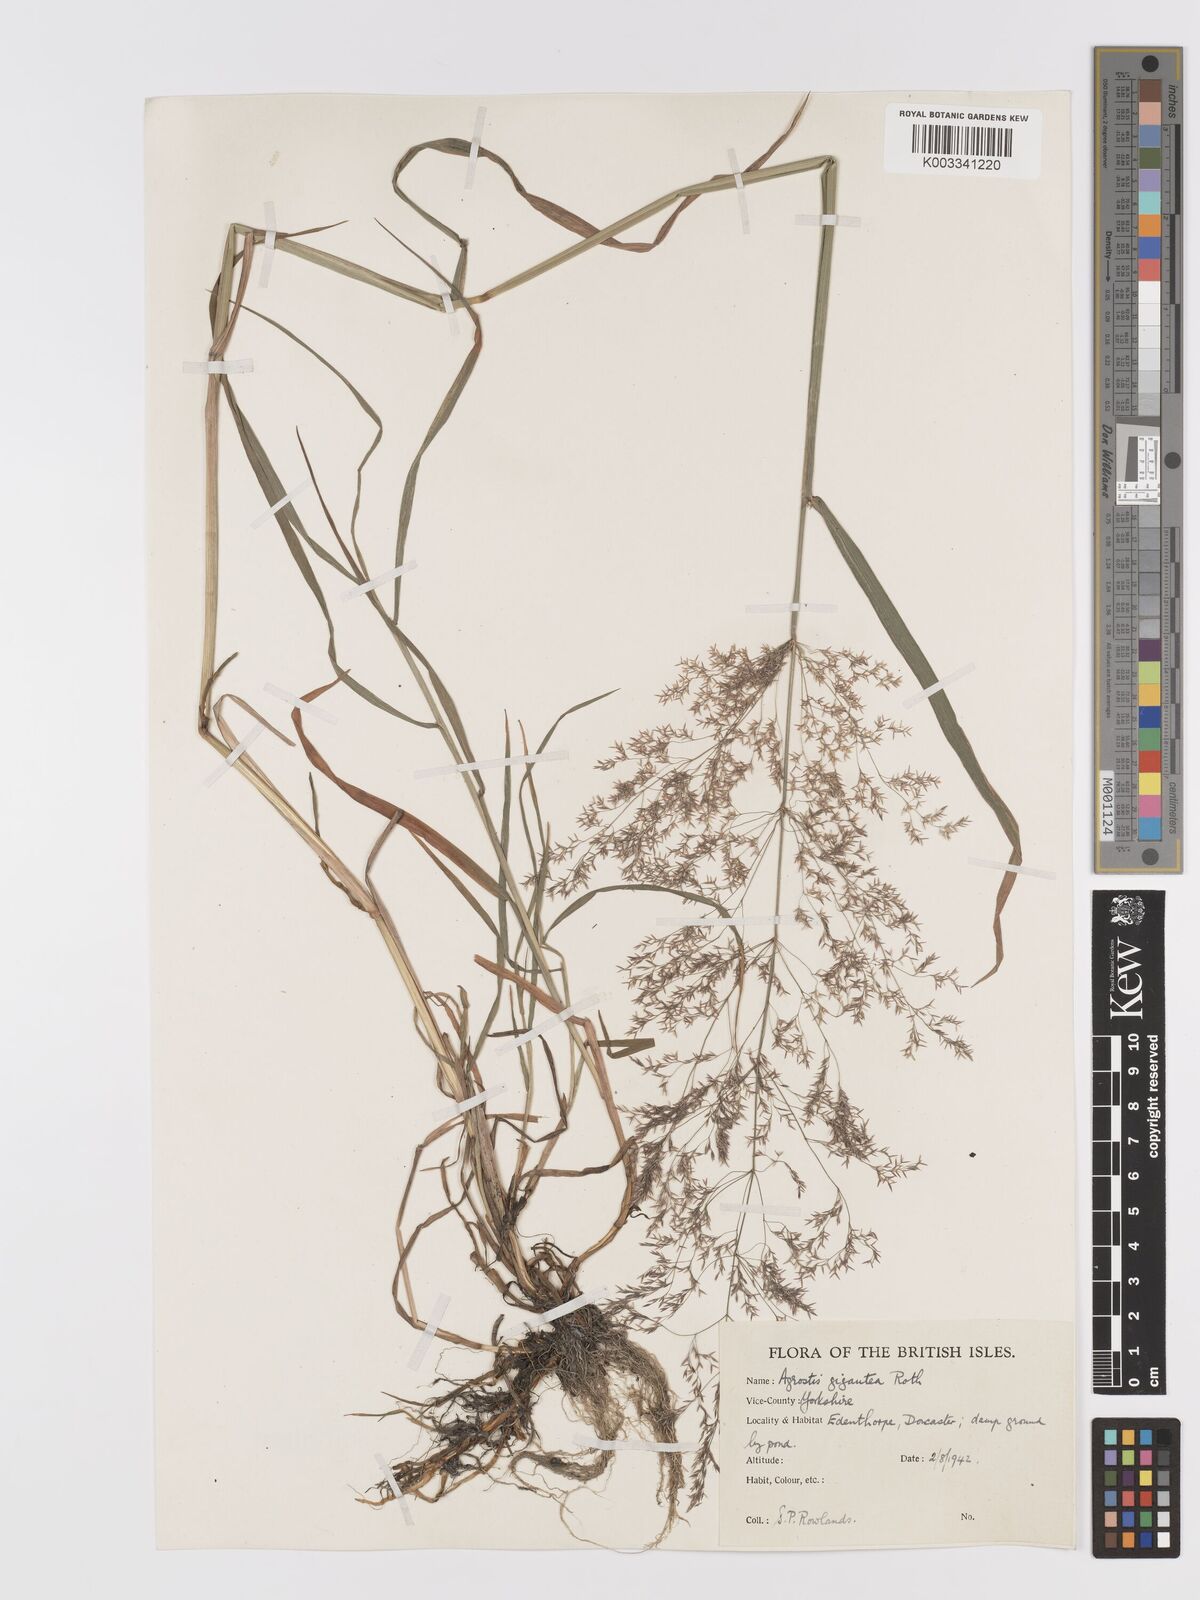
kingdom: Plantae
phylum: Tracheophyta
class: Liliopsida
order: Poales
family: Poaceae
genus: Agrostis
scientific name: Agrostis gigantea
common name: Black bent
